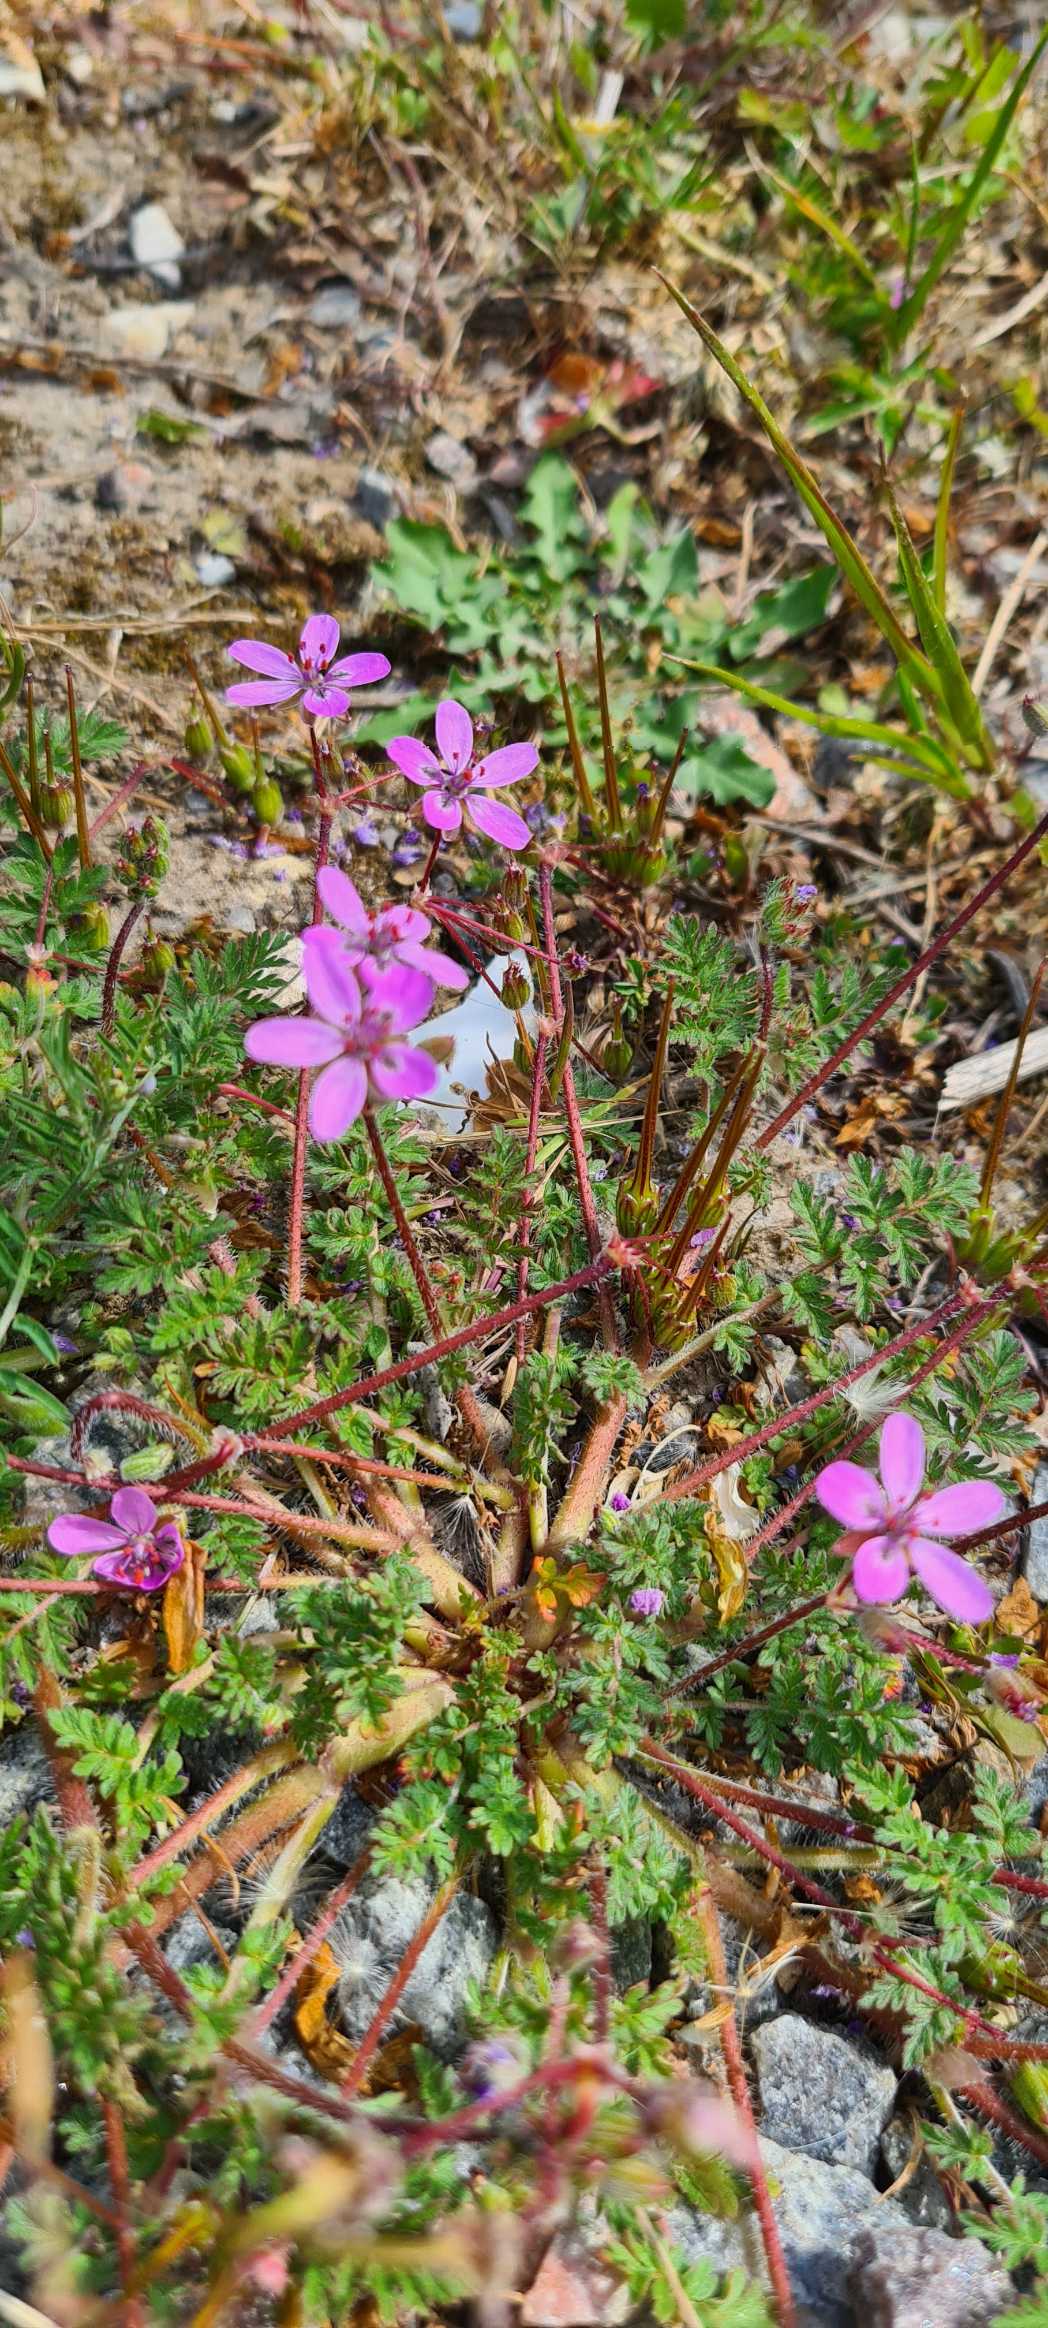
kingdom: Plantae
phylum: Tracheophyta
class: Magnoliopsida
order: Geraniales
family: Geraniaceae
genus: Erodium
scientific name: Erodium cicutarium
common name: Hejrenæb
